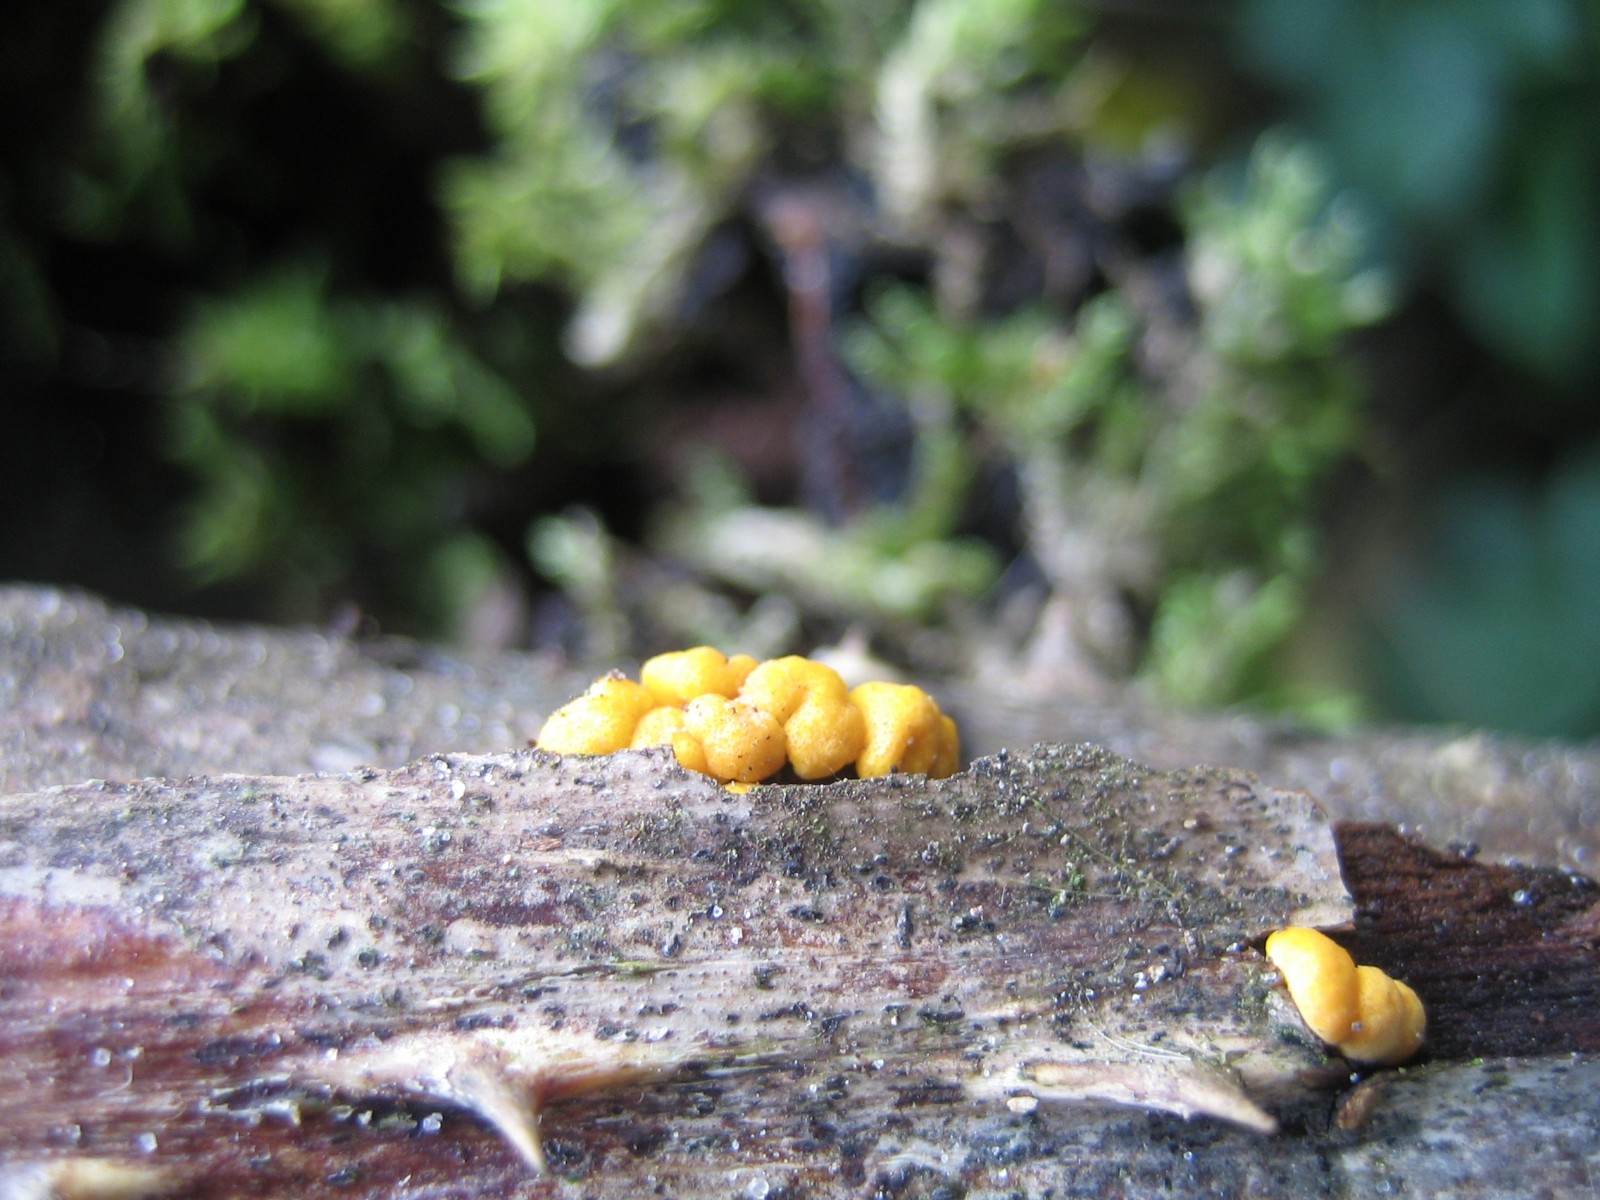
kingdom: Fungi
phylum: Ascomycota
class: Sordariomycetes
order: Hypocreales
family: Hypocreaceae
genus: Trichoderma
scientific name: Trichoderma
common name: kødkerne
